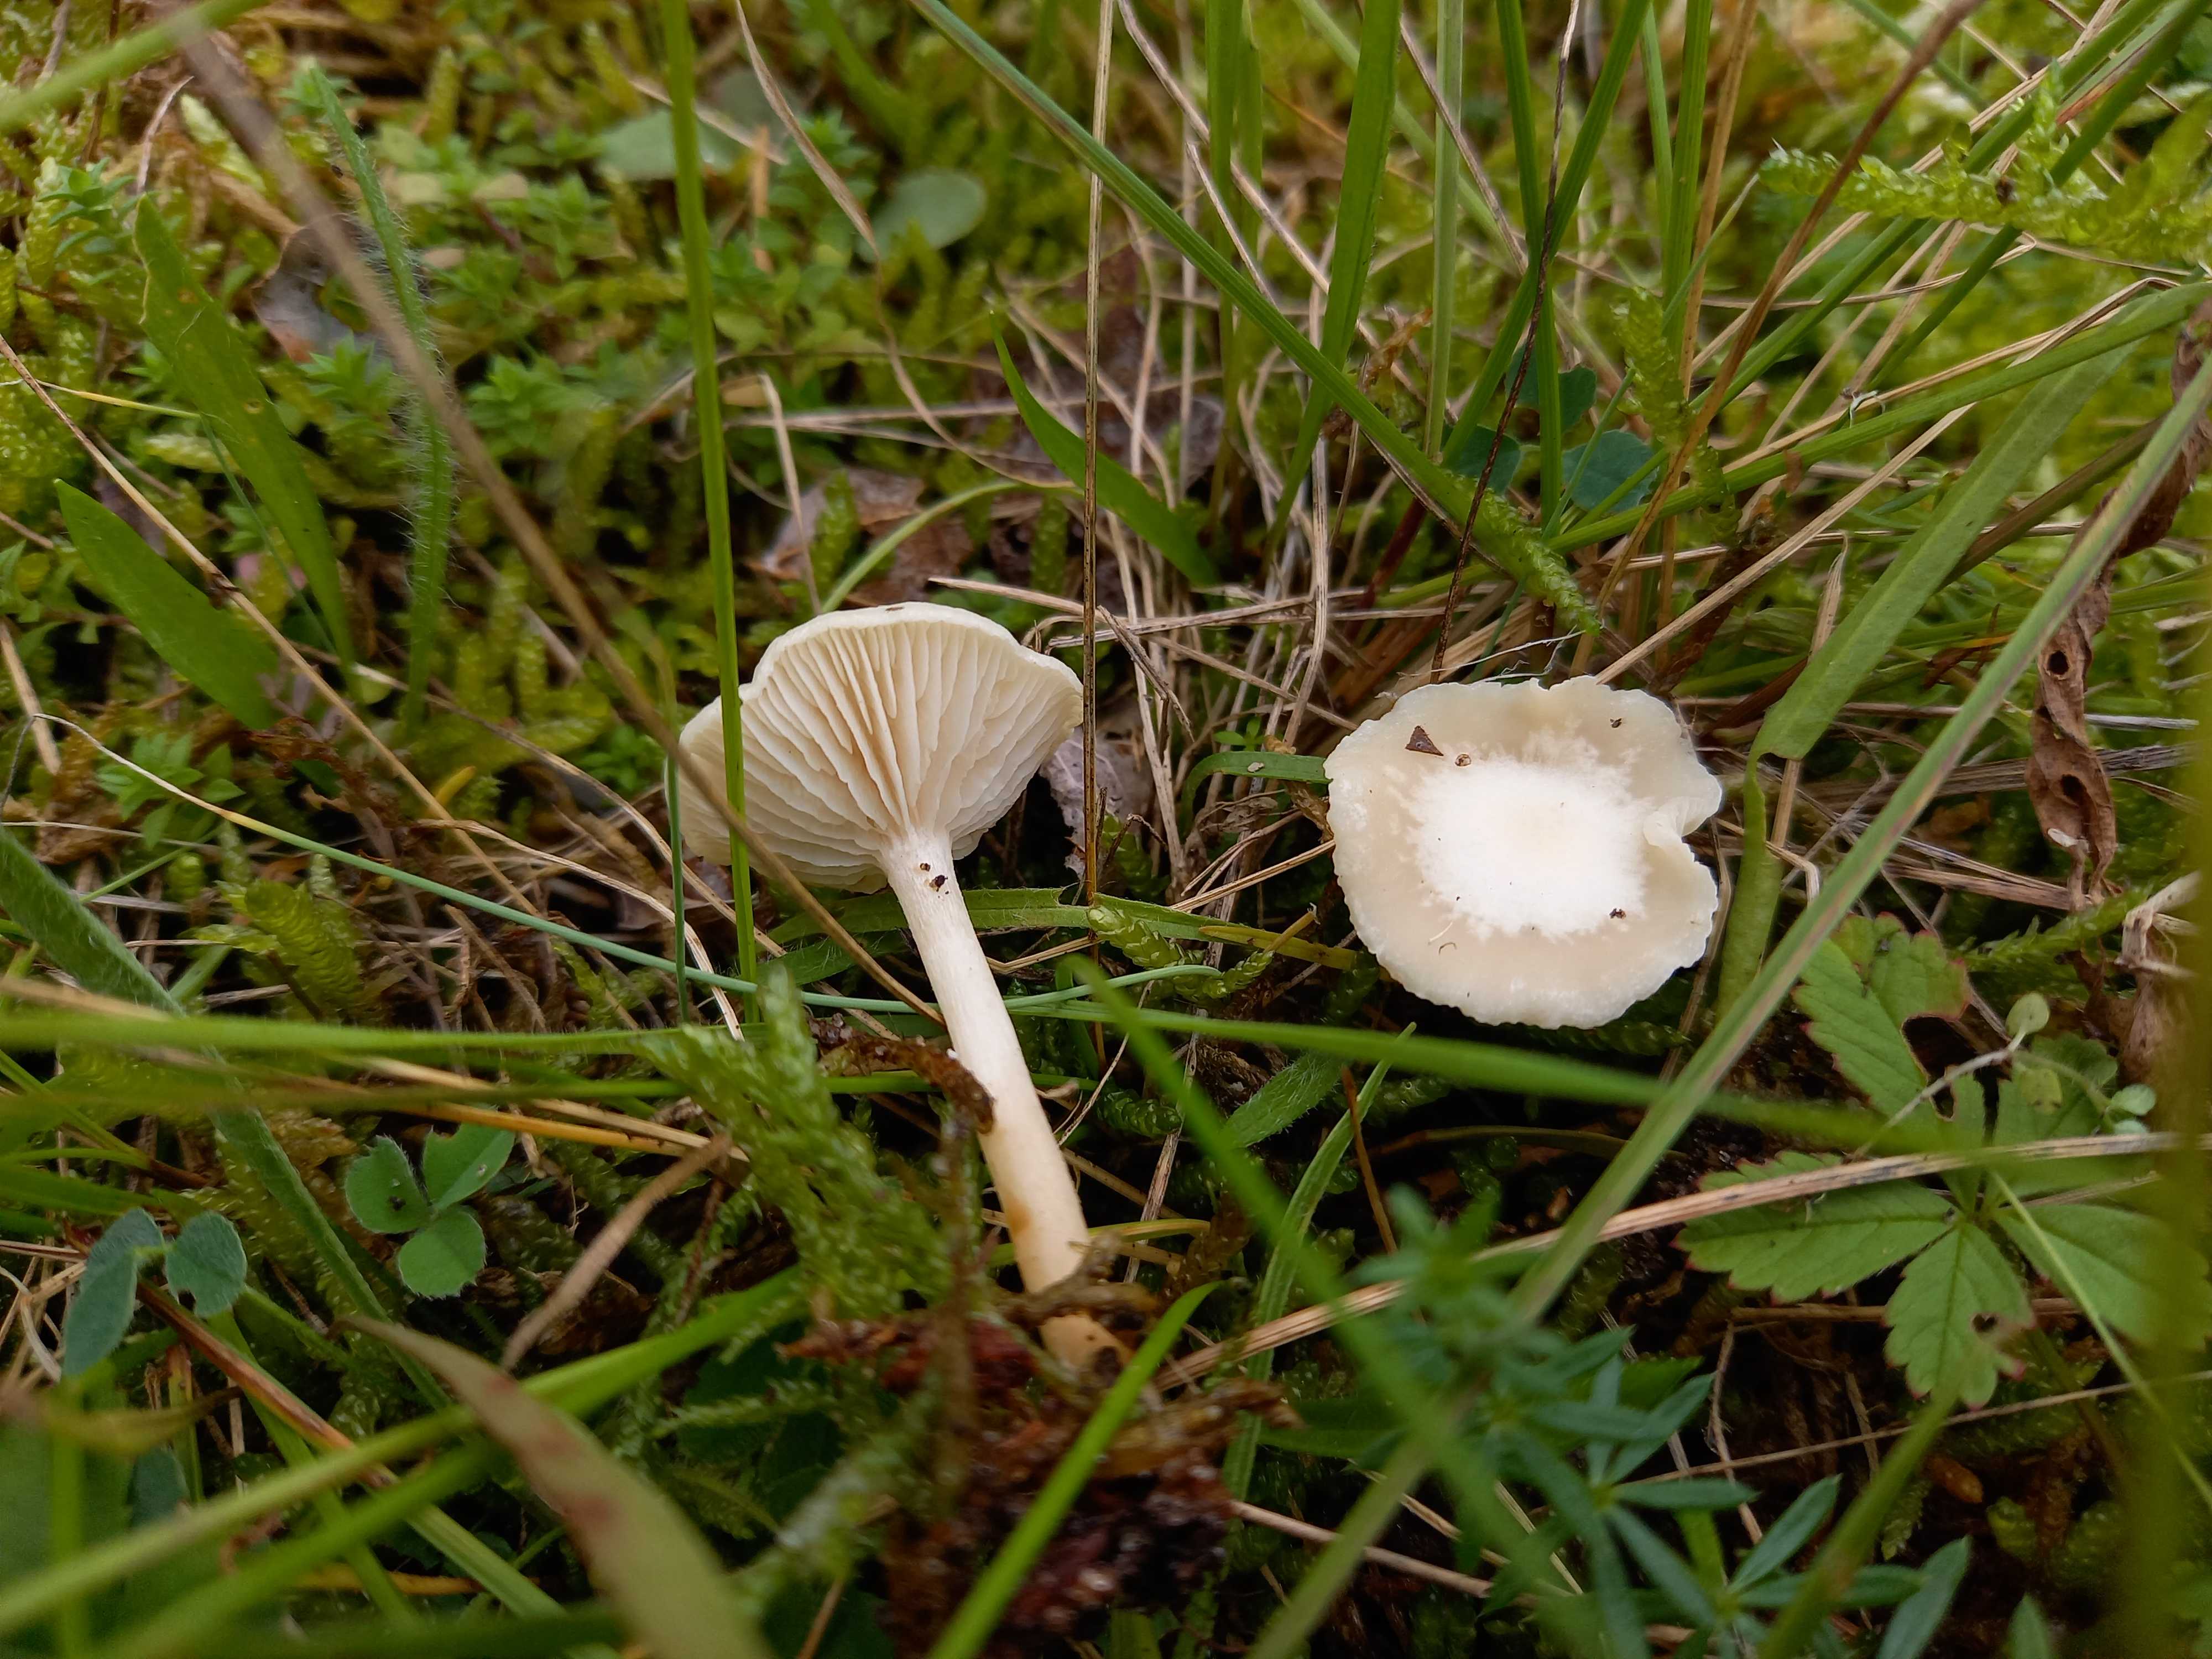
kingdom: Fungi
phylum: Basidiomycota
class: Agaricomycetes
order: Agaricales
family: Tricholomataceae
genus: Clitocybe
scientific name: Clitocybe
